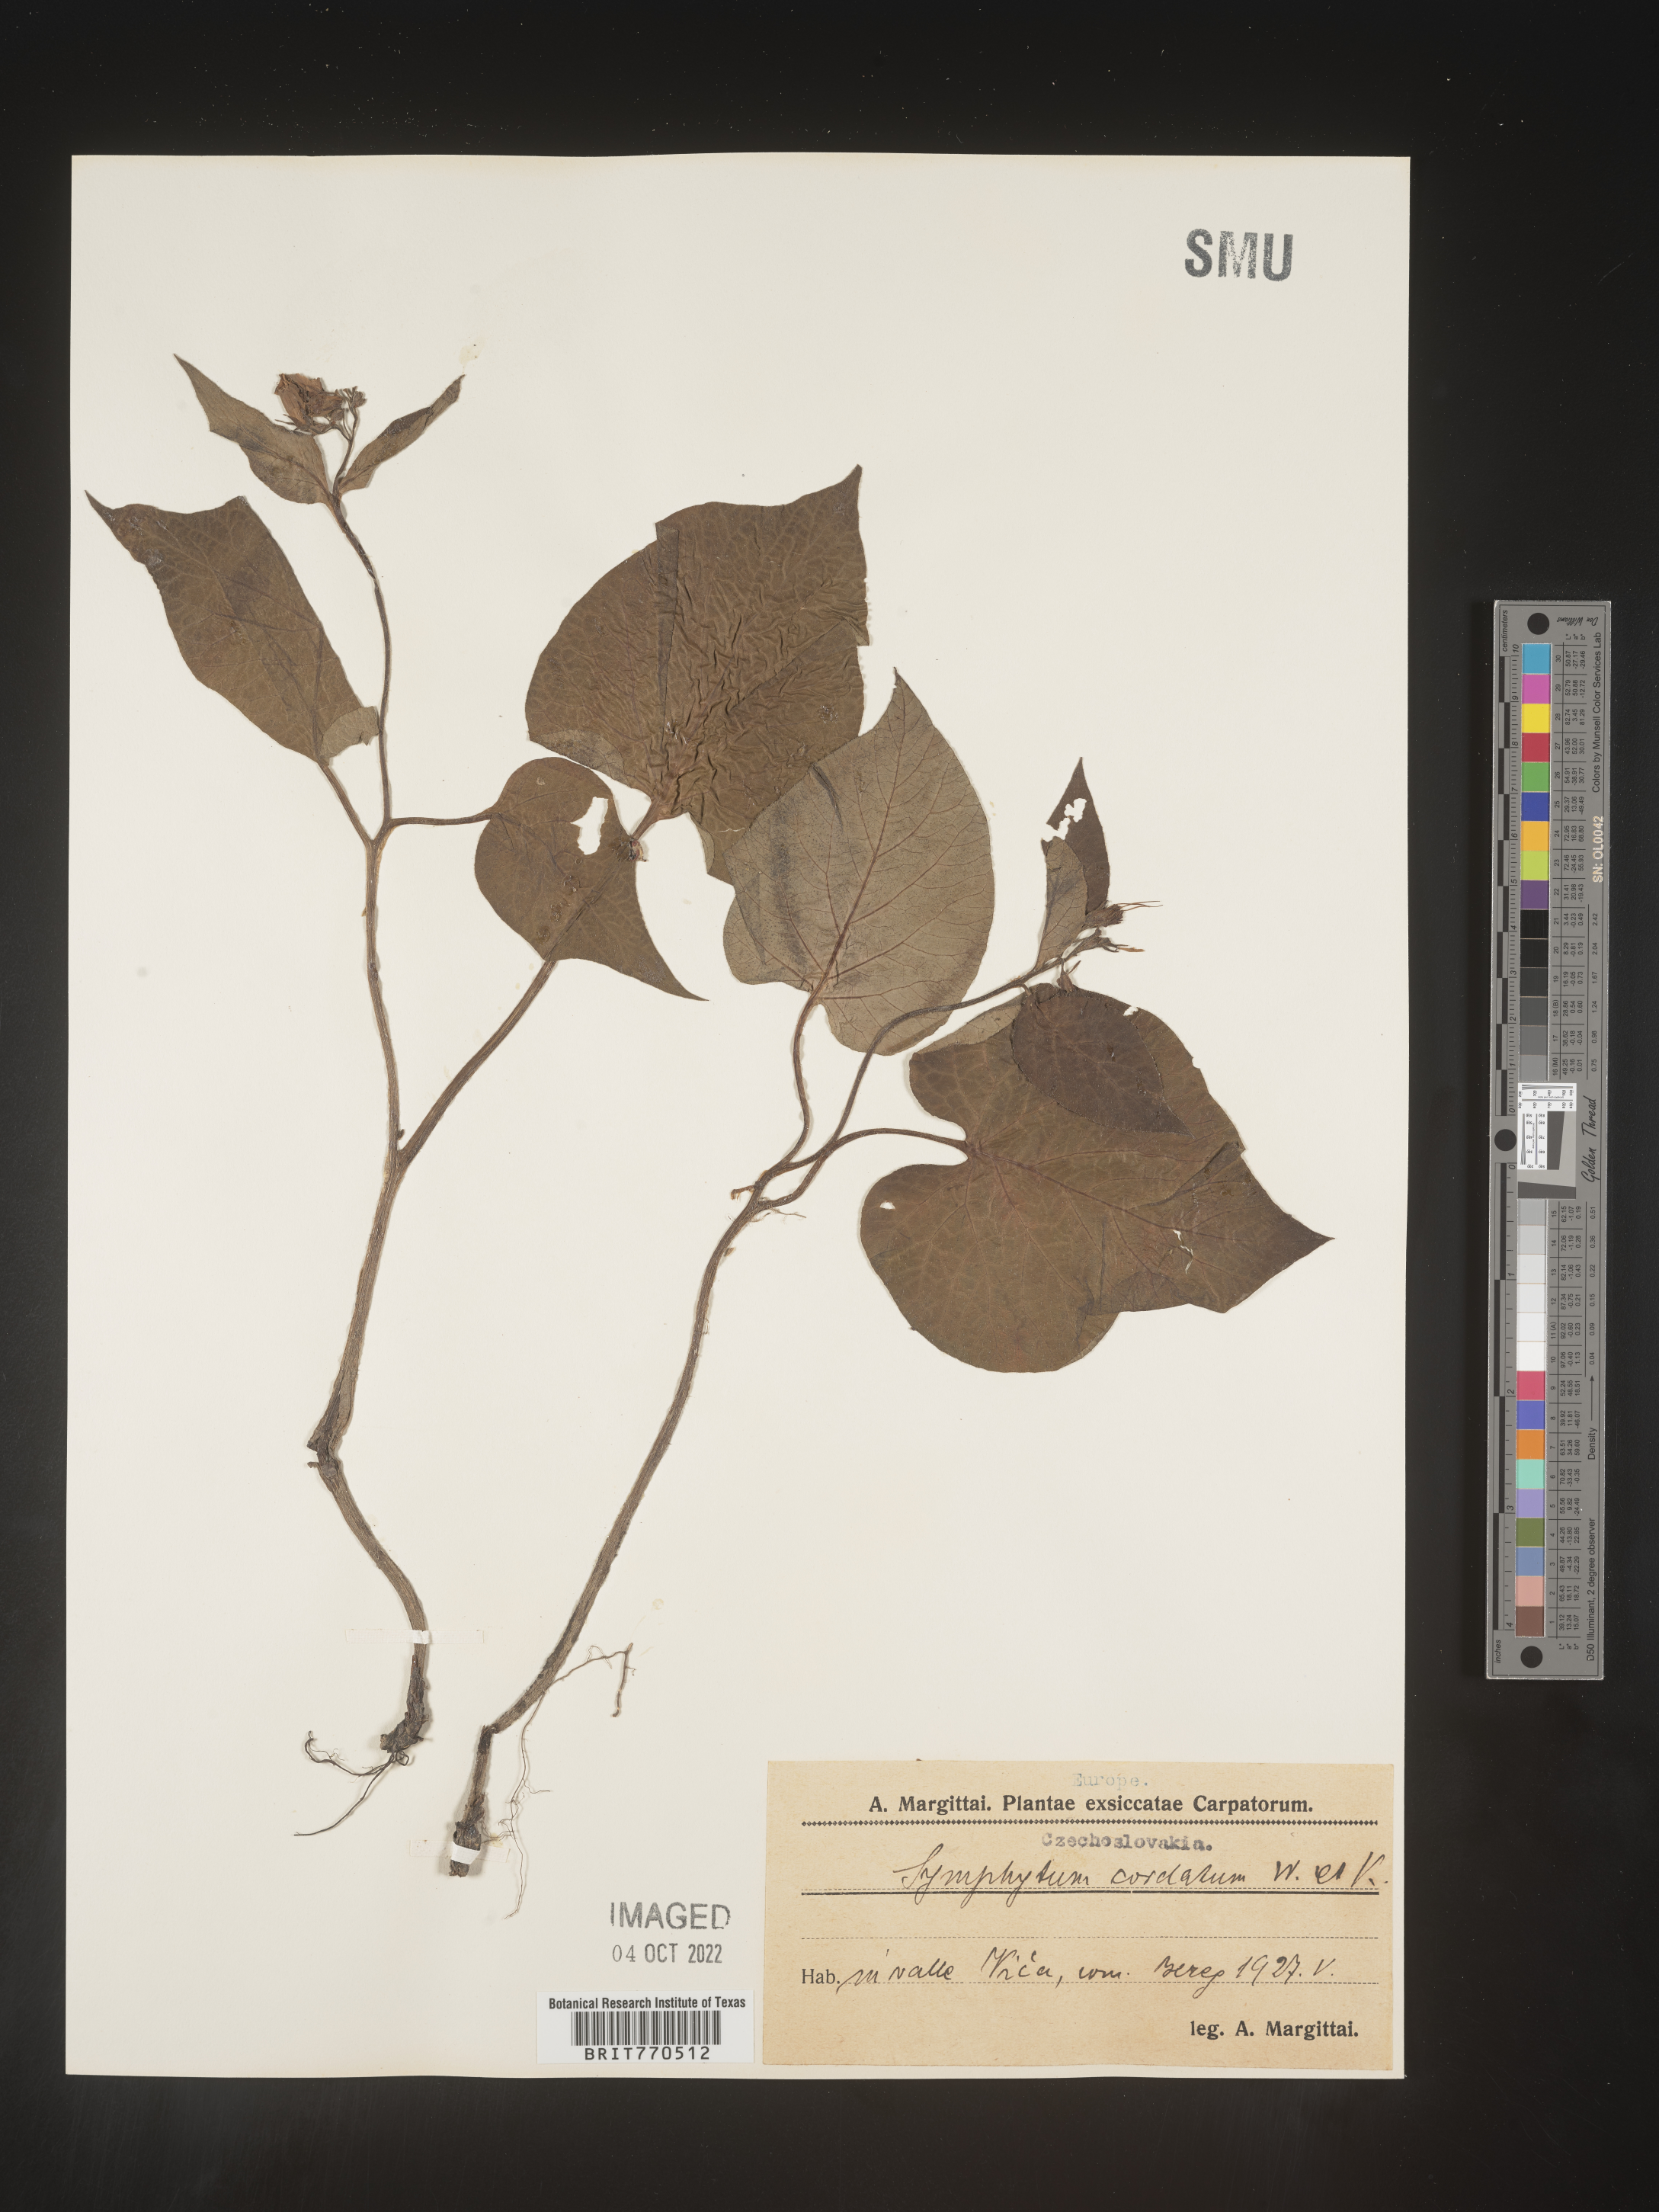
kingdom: Plantae
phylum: Tracheophyta
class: Magnoliopsida
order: Boraginales
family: Boraginaceae
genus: Symphytum
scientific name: Symphytum
